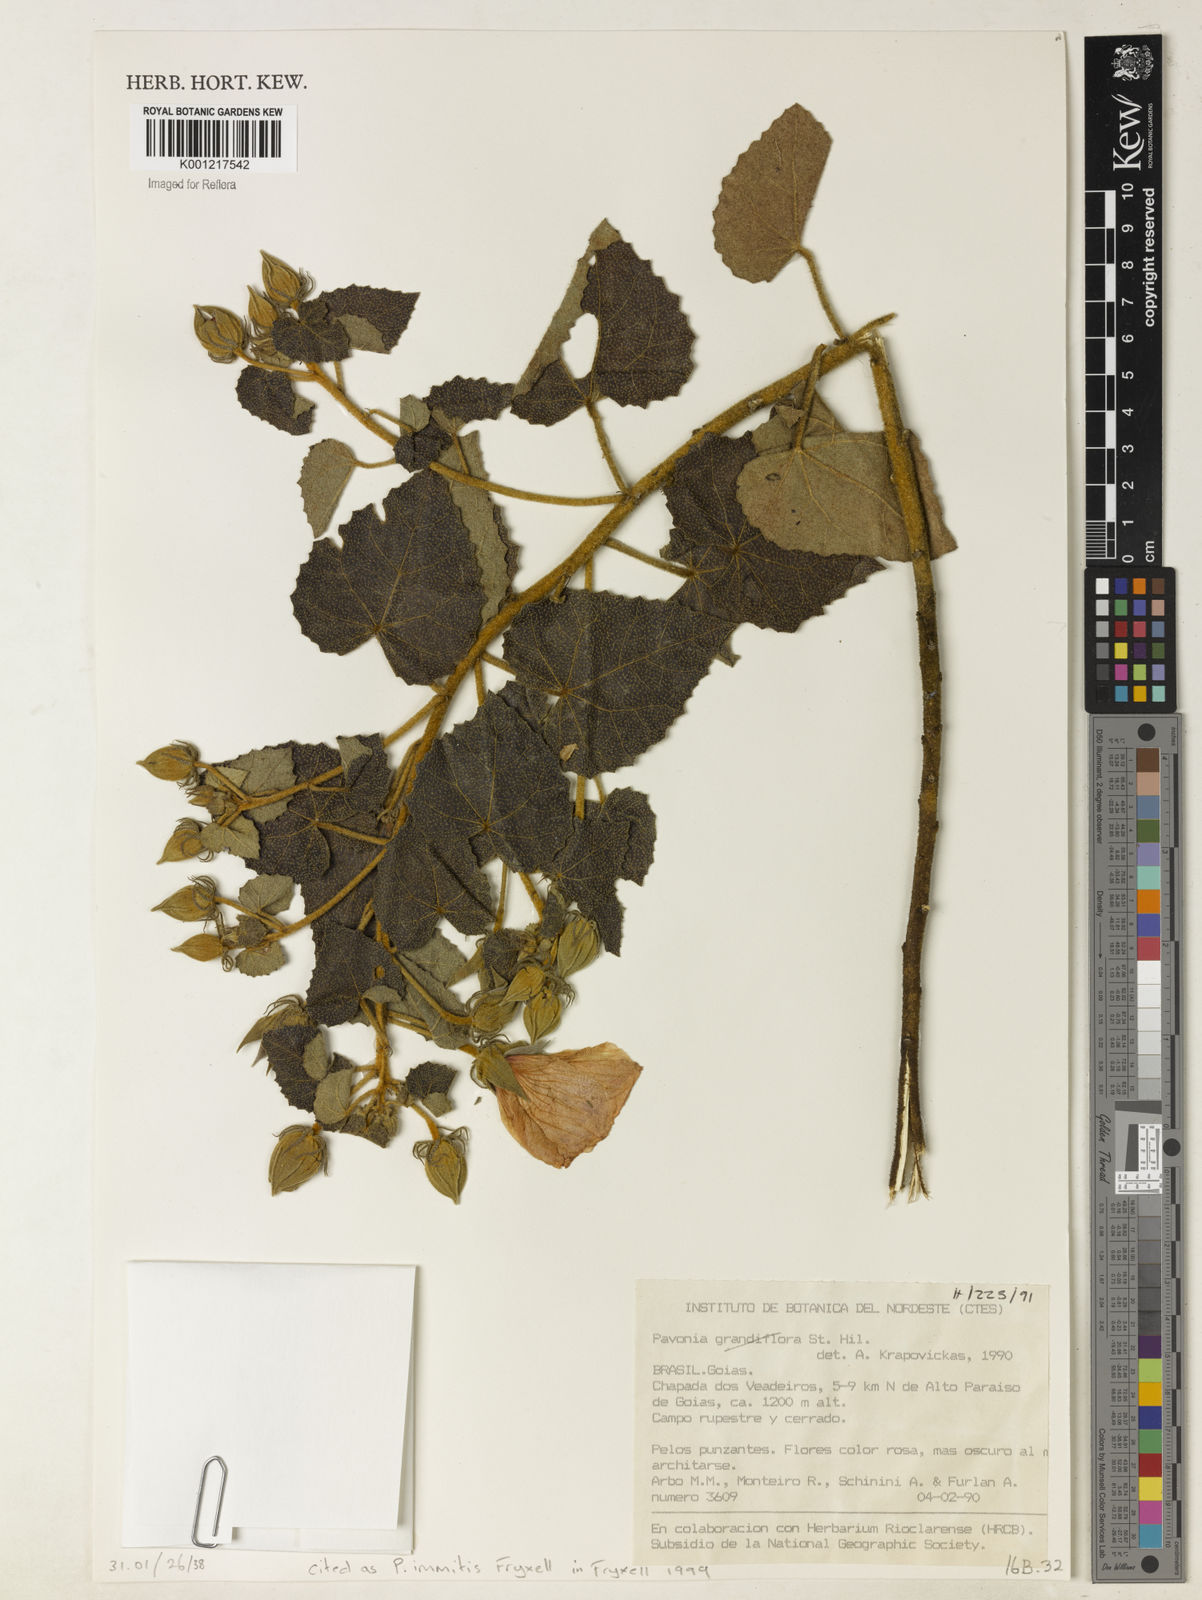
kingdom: Plantae
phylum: Tracheophyta
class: Magnoliopsida
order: Malvales
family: Malvaceae
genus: Pavonia
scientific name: Pavonia immitis
